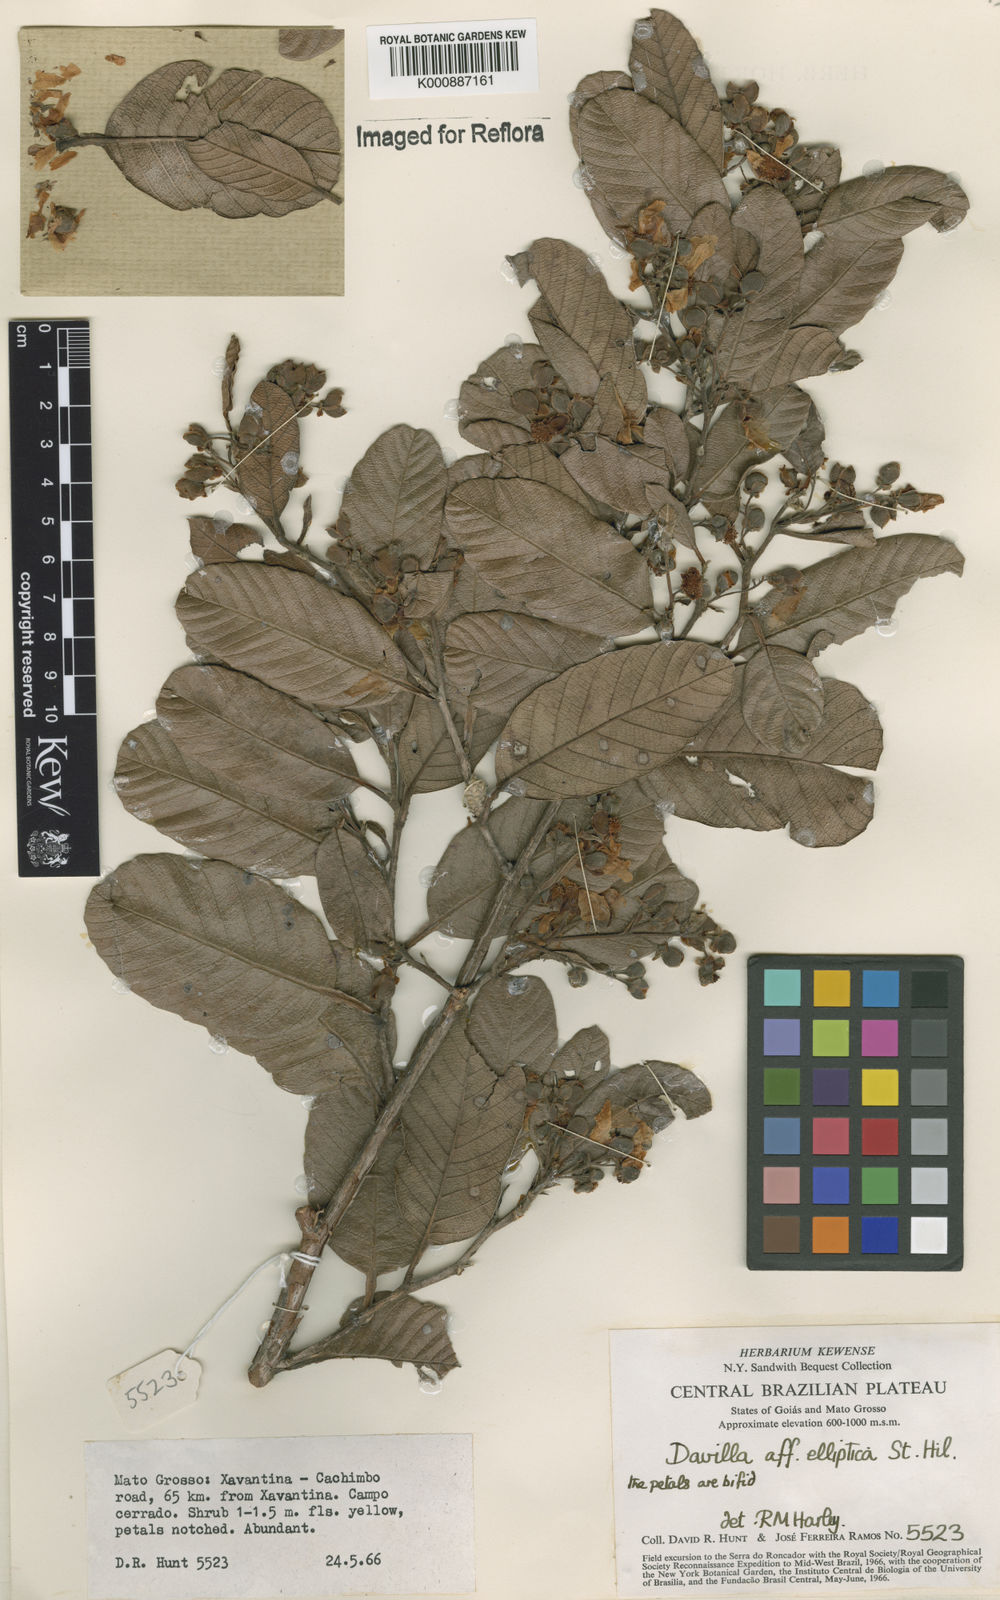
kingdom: Plantae
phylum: Tracheophyta
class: Magnoliopsida
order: Dilleniales
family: Dilleniaceae
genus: Davilla
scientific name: Davilla elliptica
